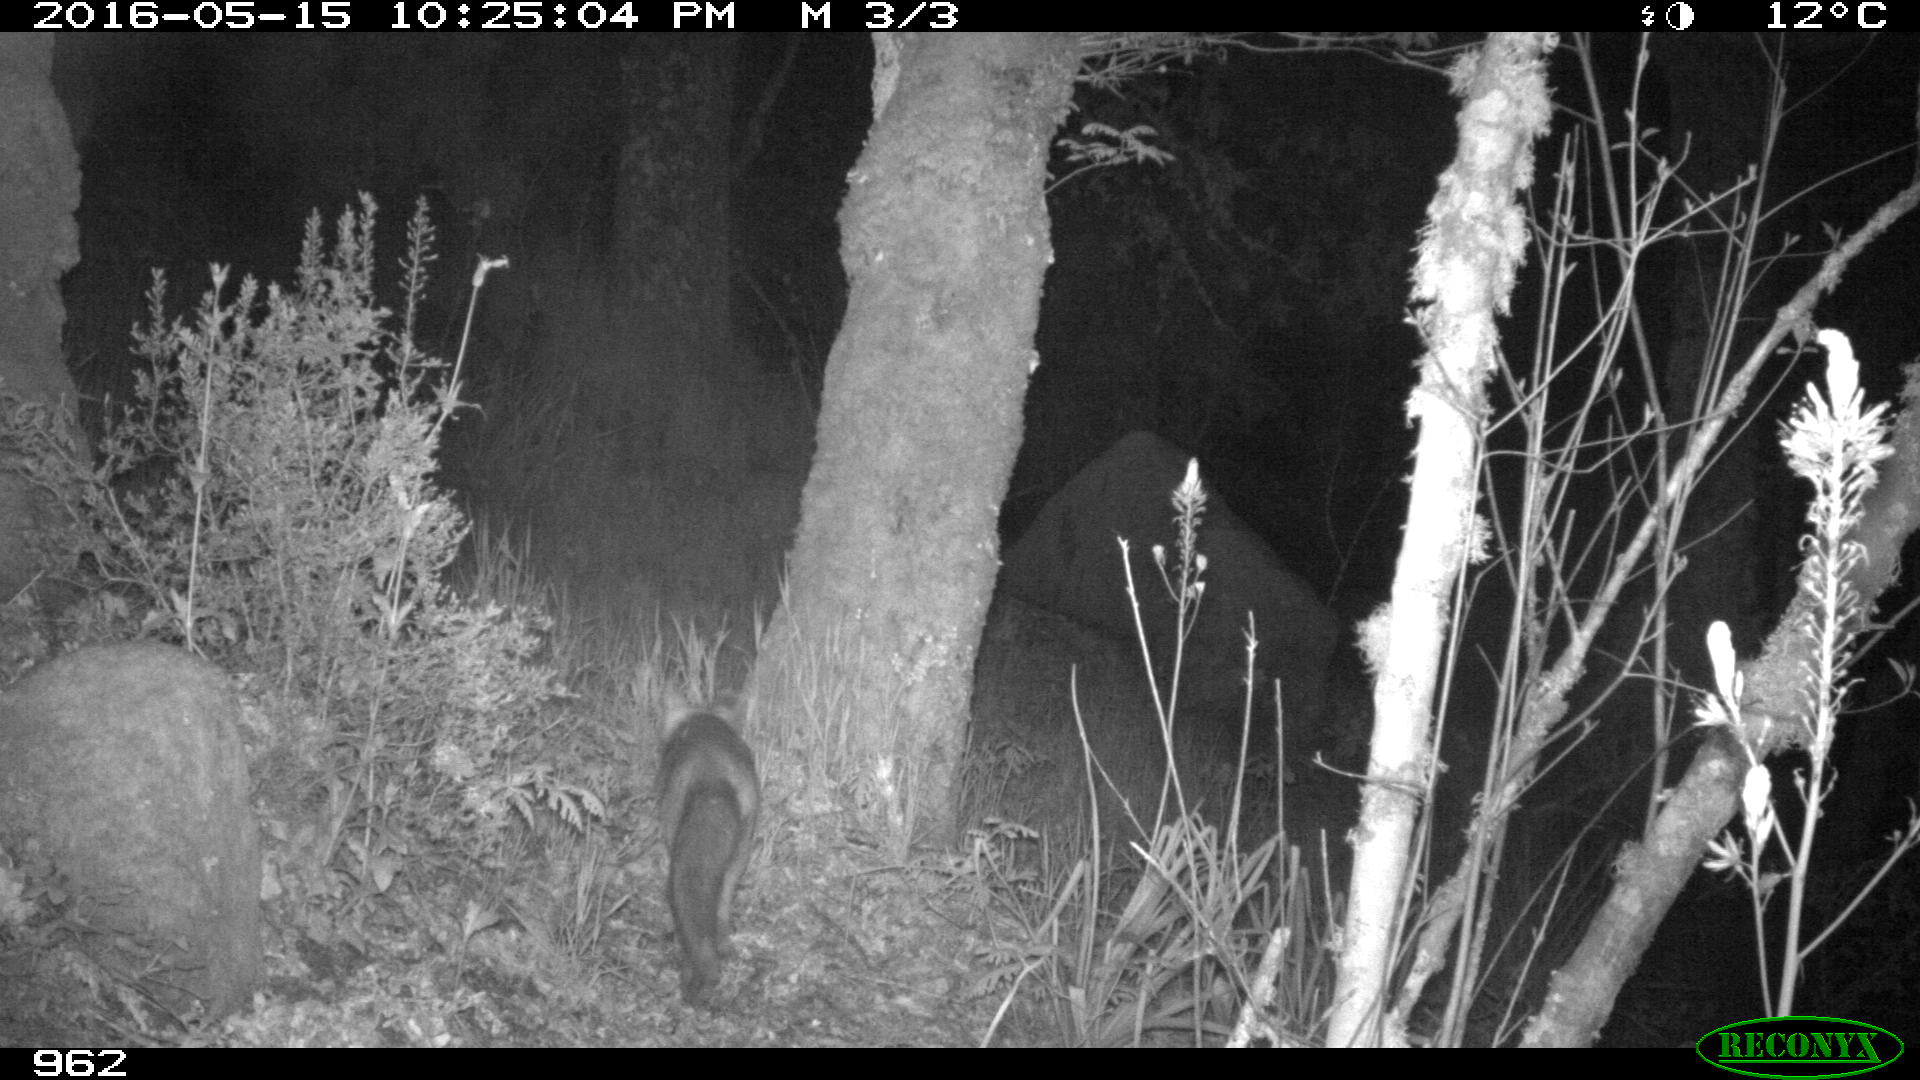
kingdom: Animalia
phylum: Chordata
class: Mammalia
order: Carnivora
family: Canidae
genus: Vulpes
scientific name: Vulpes vulpes
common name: Red fox
